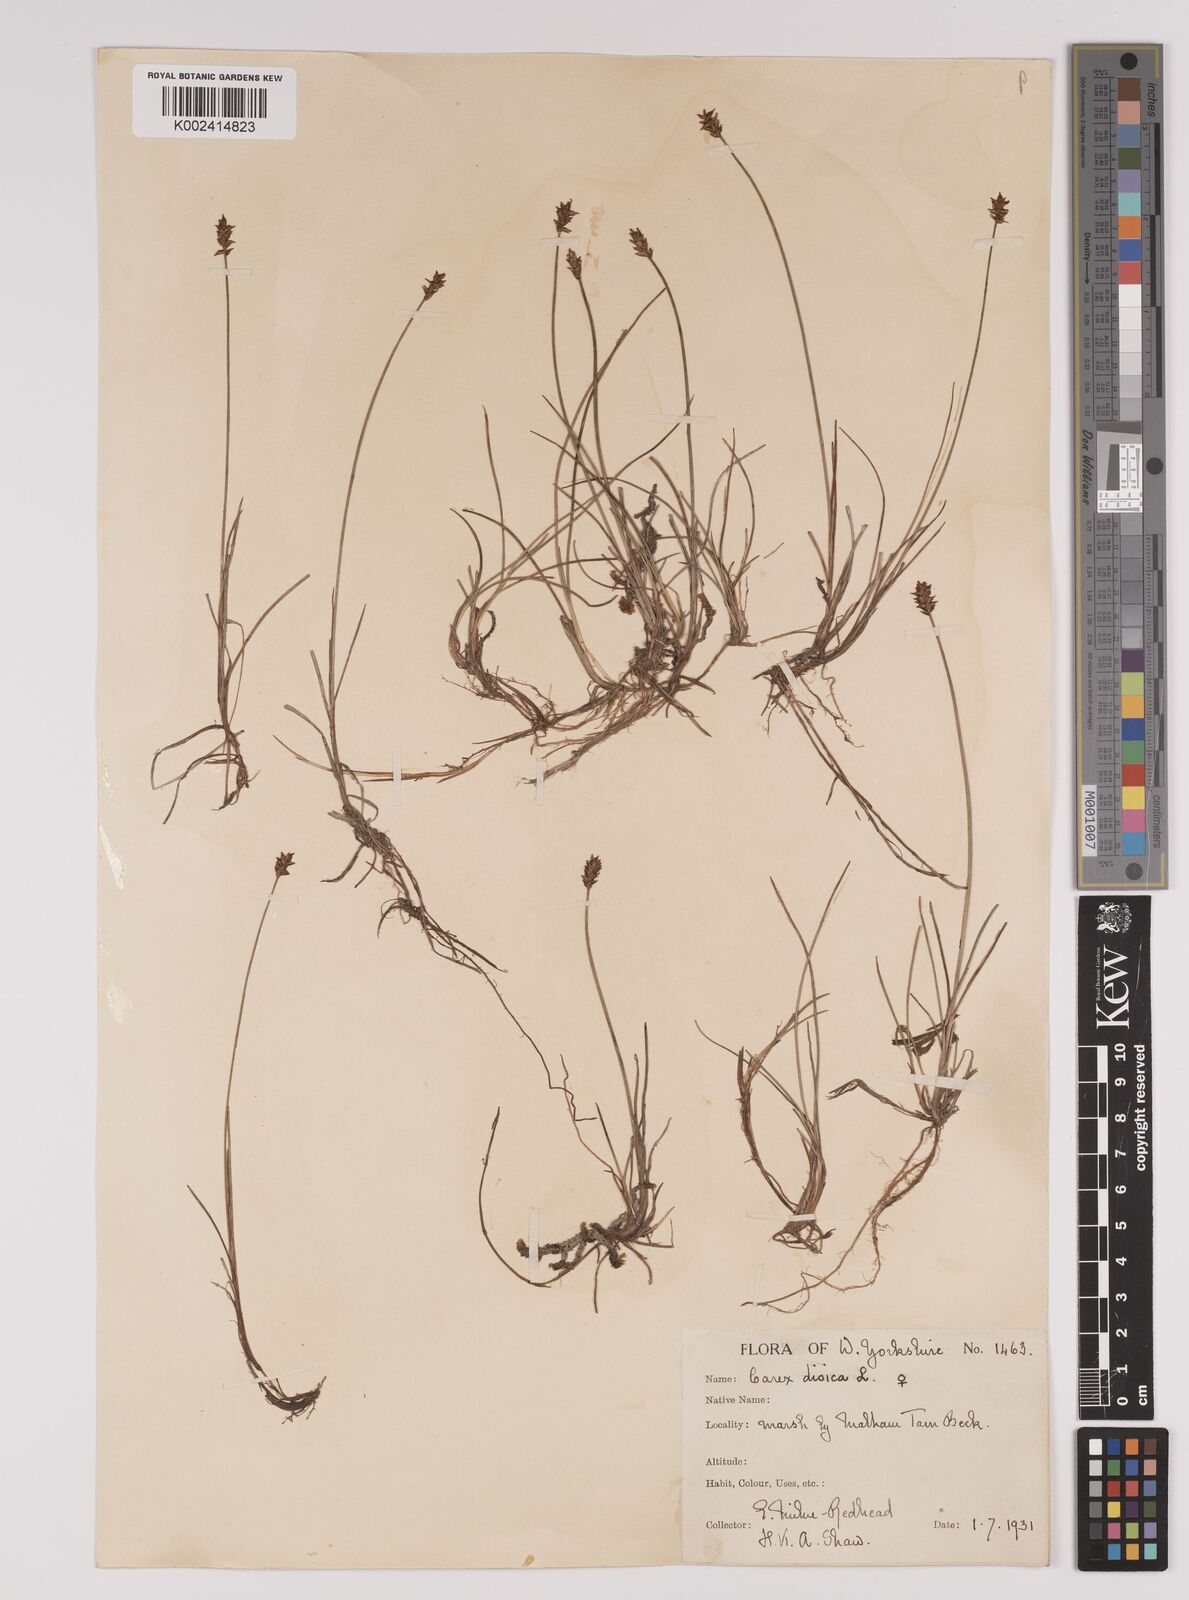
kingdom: Plantae
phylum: Tracheophyta
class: Liliopsida
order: Poales
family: Cyperaceae
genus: Carex
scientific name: Carex dioica
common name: Dioecious sedge
